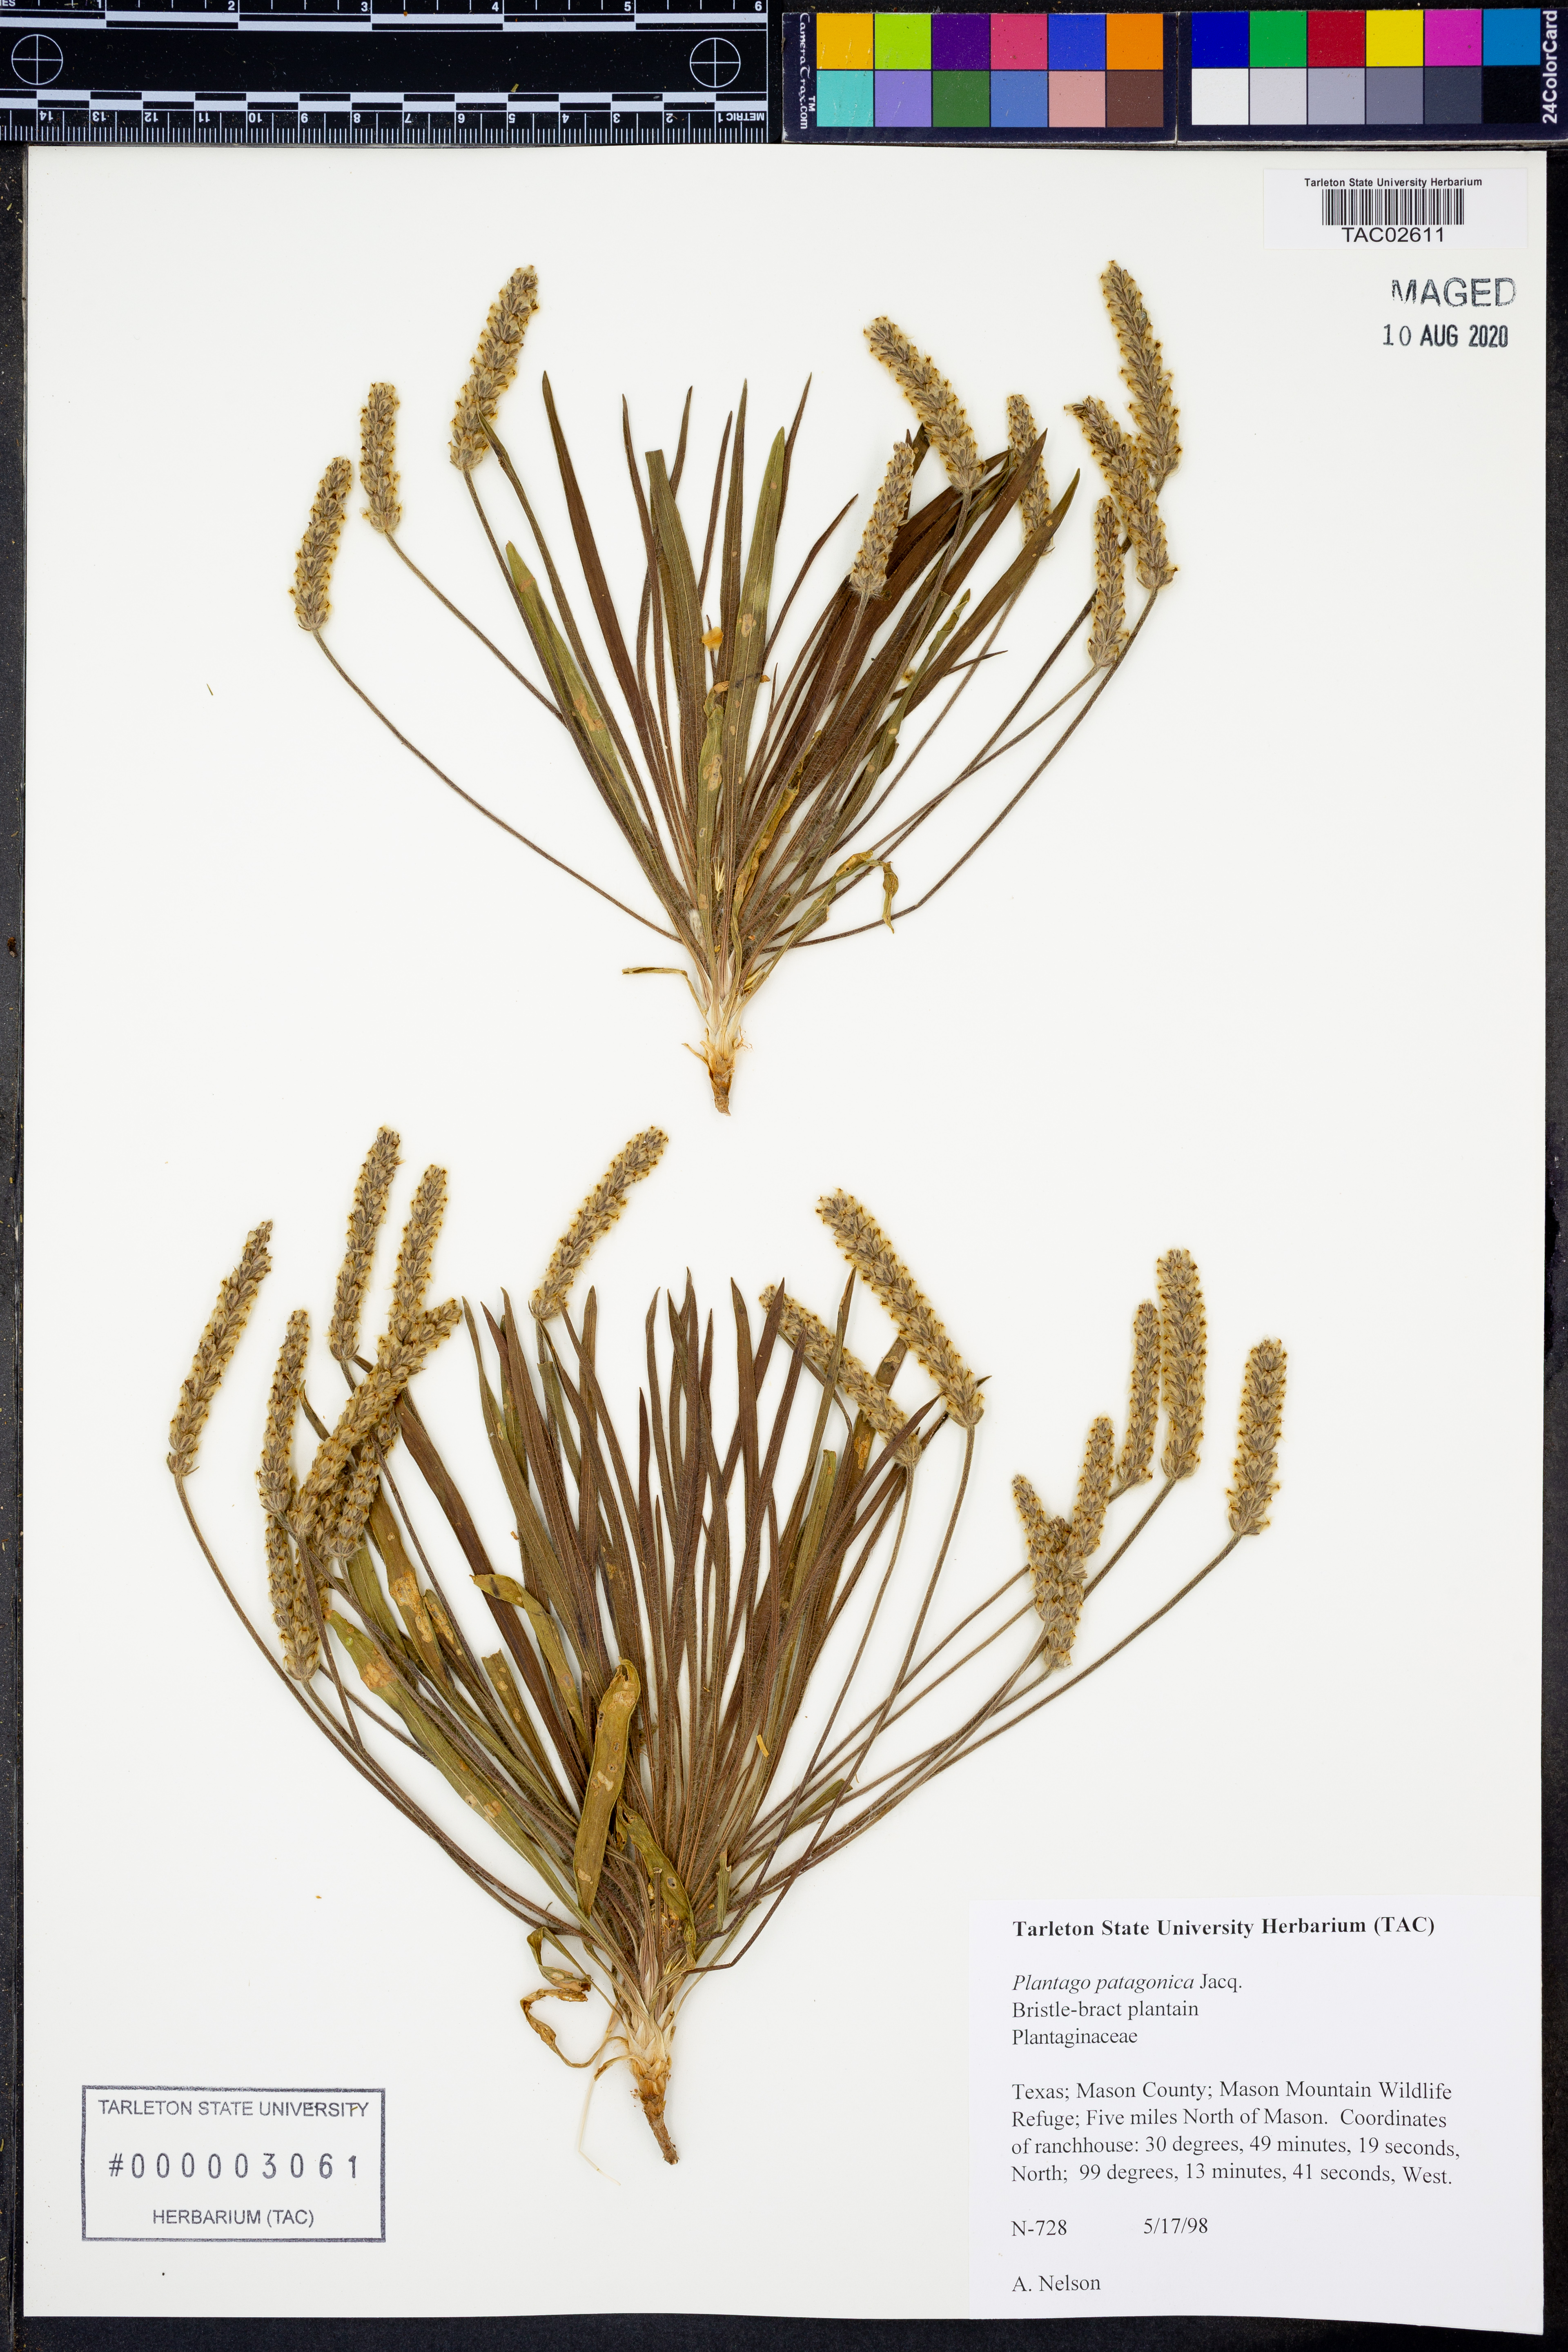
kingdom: Plantae
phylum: Tracheophyta
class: Magnoliopsida
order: Lamiales
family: Plantaginaceae
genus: Plantago
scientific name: Plantago patagonica
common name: Patagonia indian-wheat
